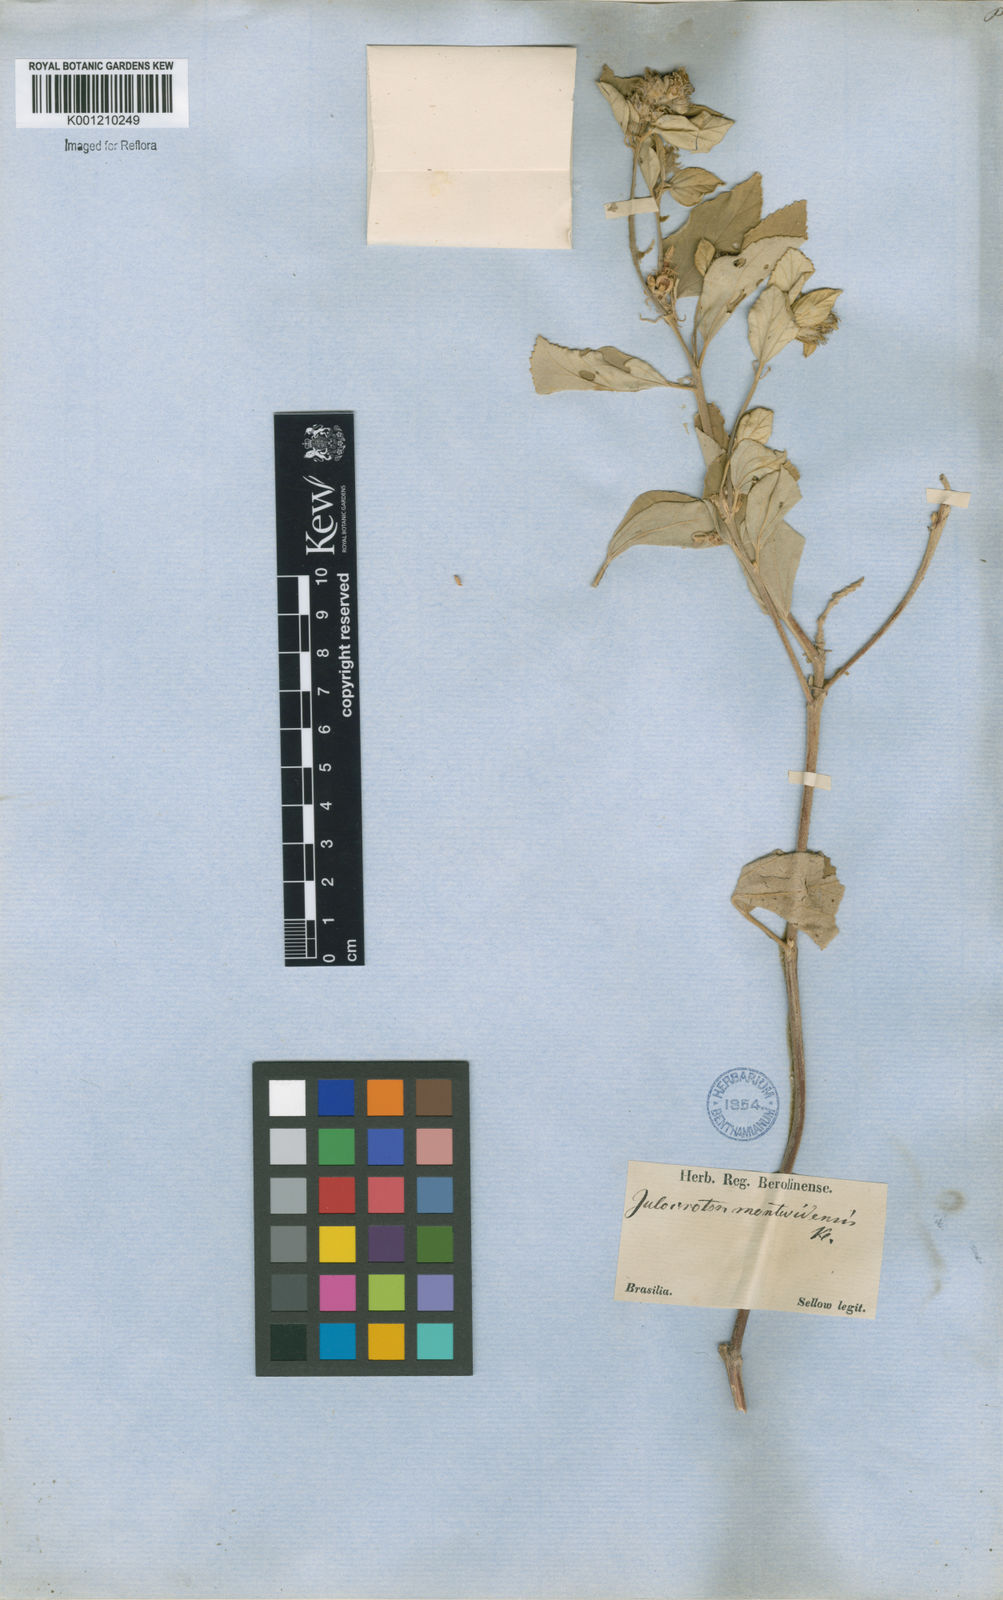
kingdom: Plantae
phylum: Tracheophyta
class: Magnoliopsida
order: Malpighiales
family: Euphorbiaceae
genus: Croton
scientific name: Croton argenteus
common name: Silver july croton
